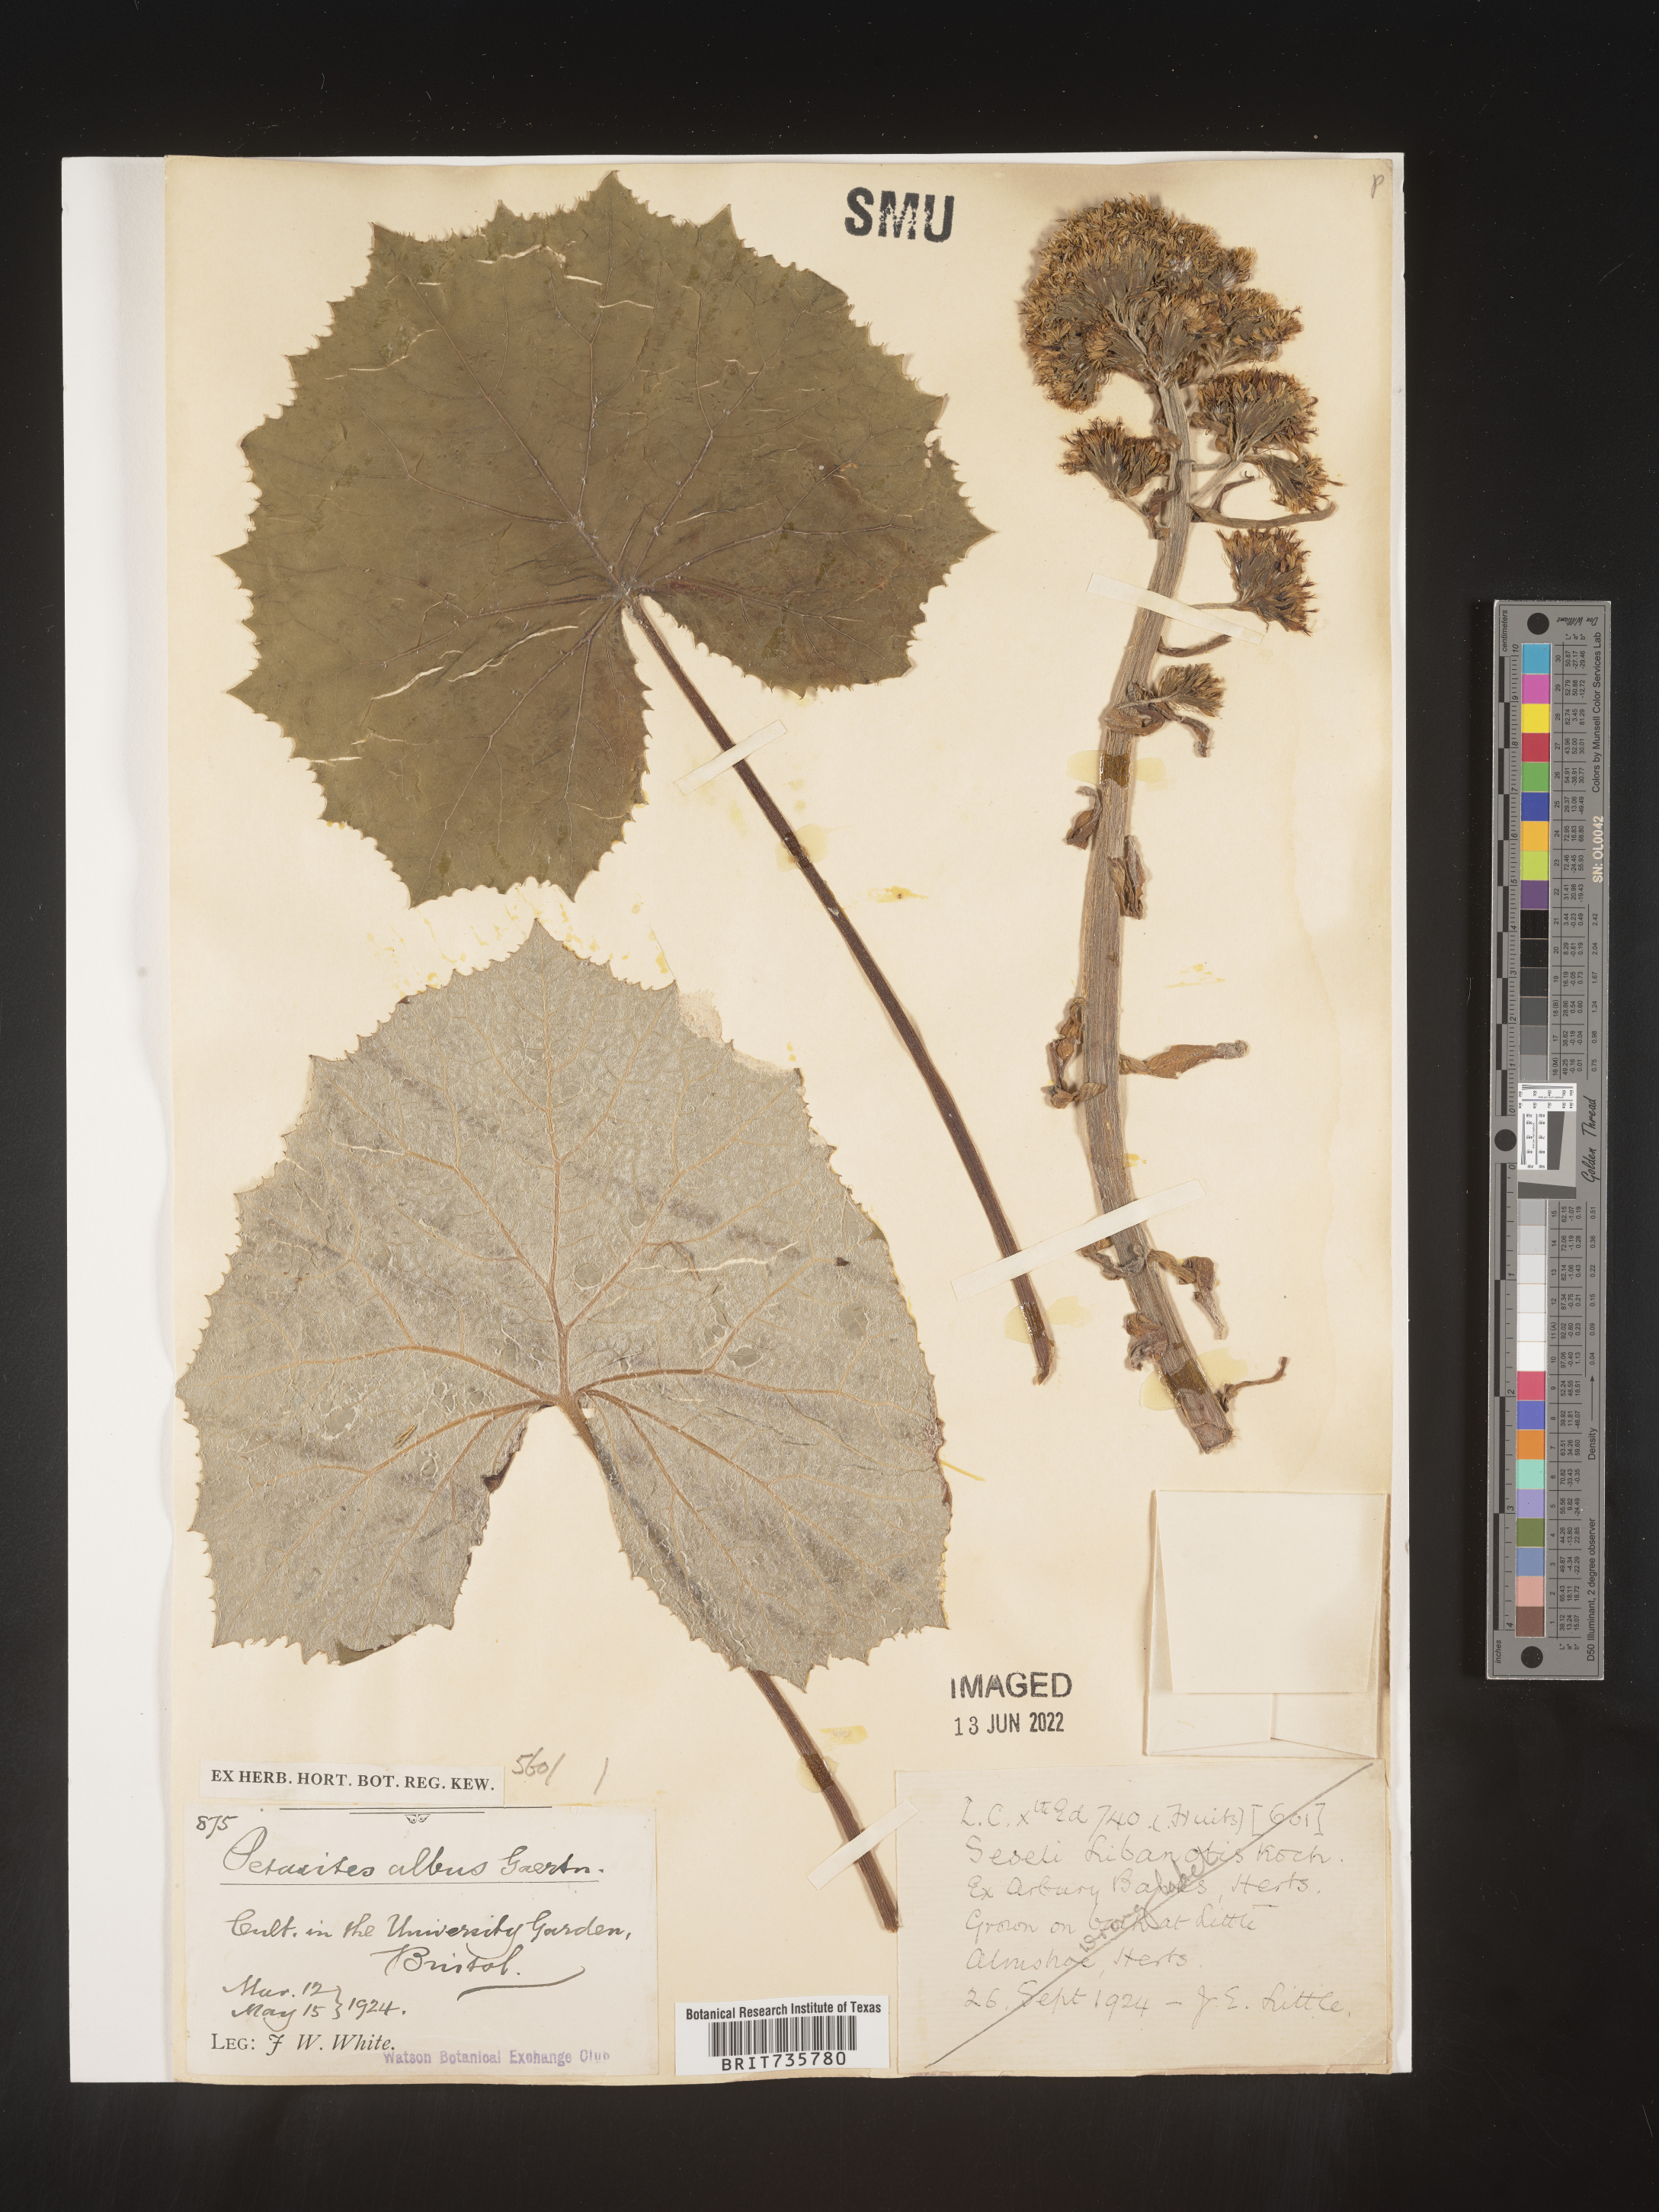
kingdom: Plantae
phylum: Tracheophyta
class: Magnoliopsida
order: Asterales
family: Asteraceae
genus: Petasites
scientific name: Petasites
